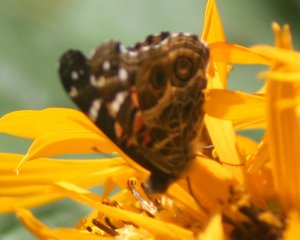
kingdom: Animalia
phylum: Arthropoda
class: Insecta
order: Lepidoptera
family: Nymphalidae
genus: Vanessa
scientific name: Vanessa virginiensis
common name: American Lady
